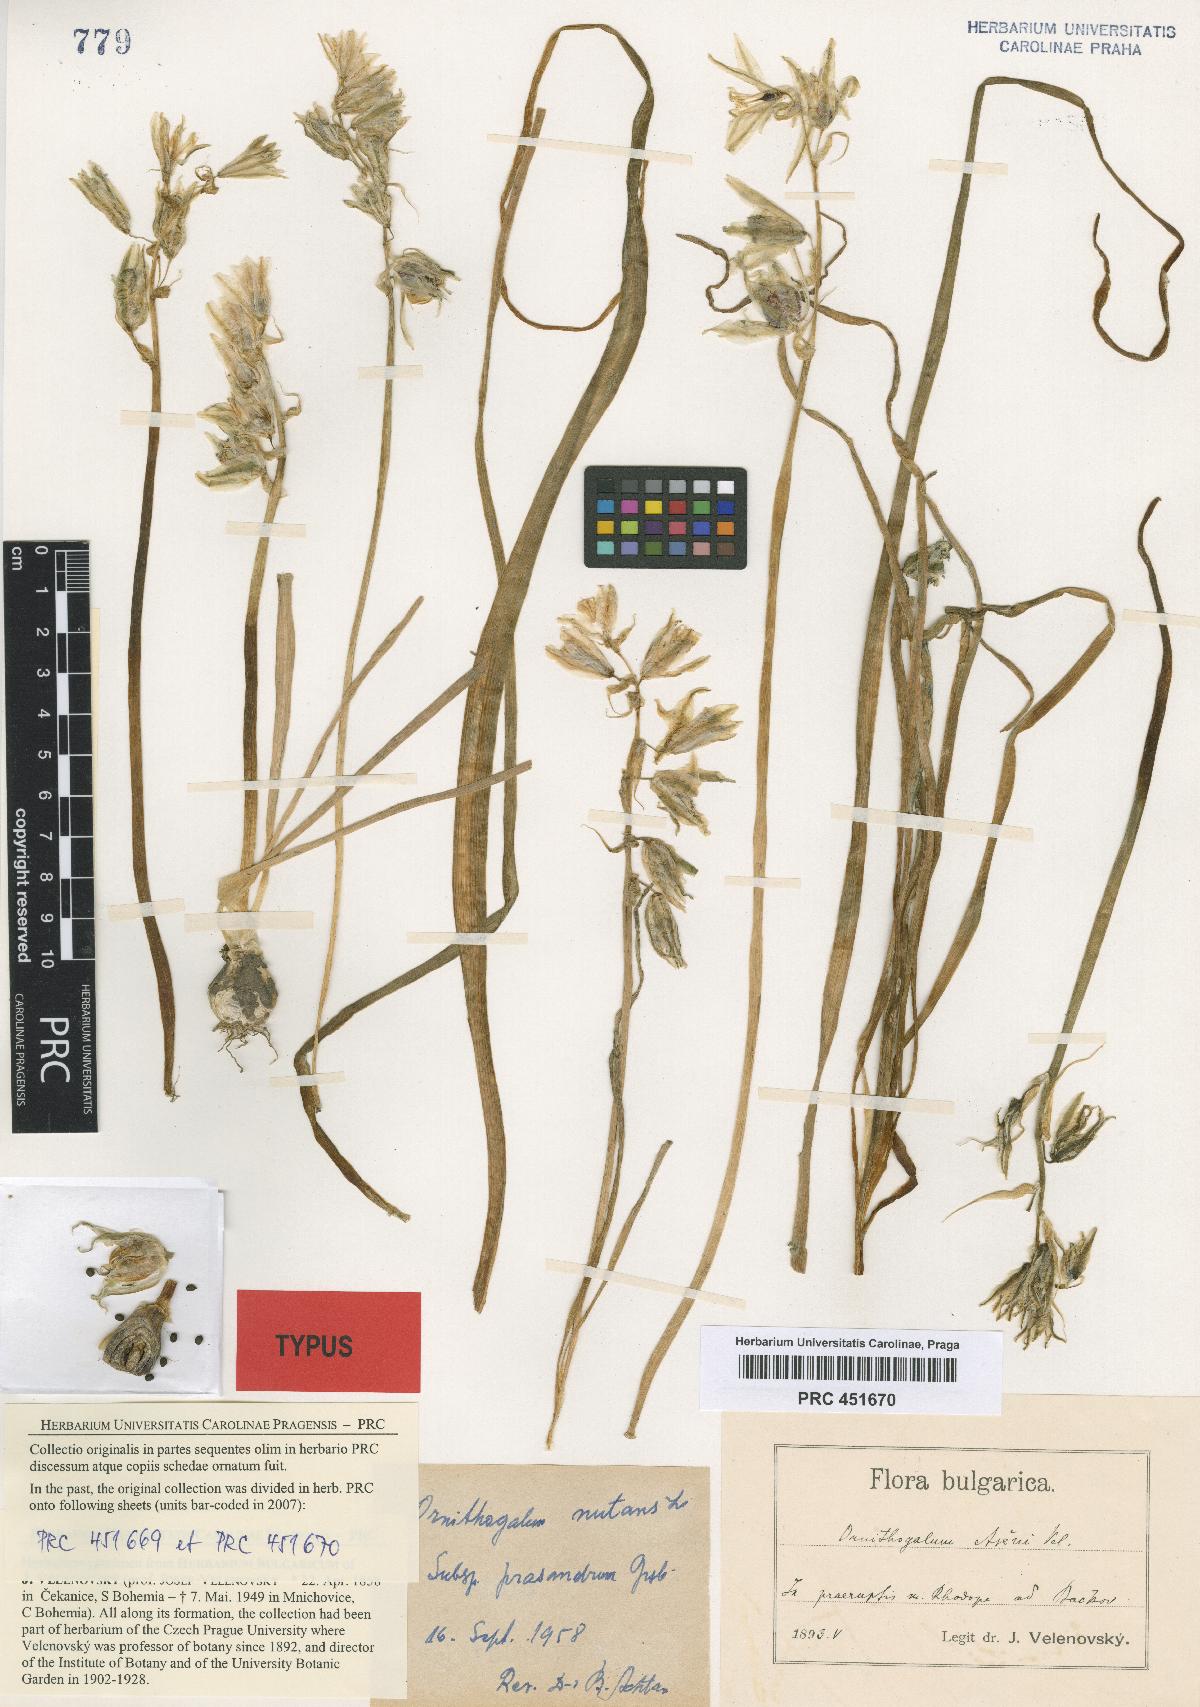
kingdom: Plantae
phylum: Tracheophyta
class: Liliopsida
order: Asparagales
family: Asparagaceae
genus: Ornithogalum
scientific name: Ornithogalum nutans
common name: Drooping star-of-bethlehem
